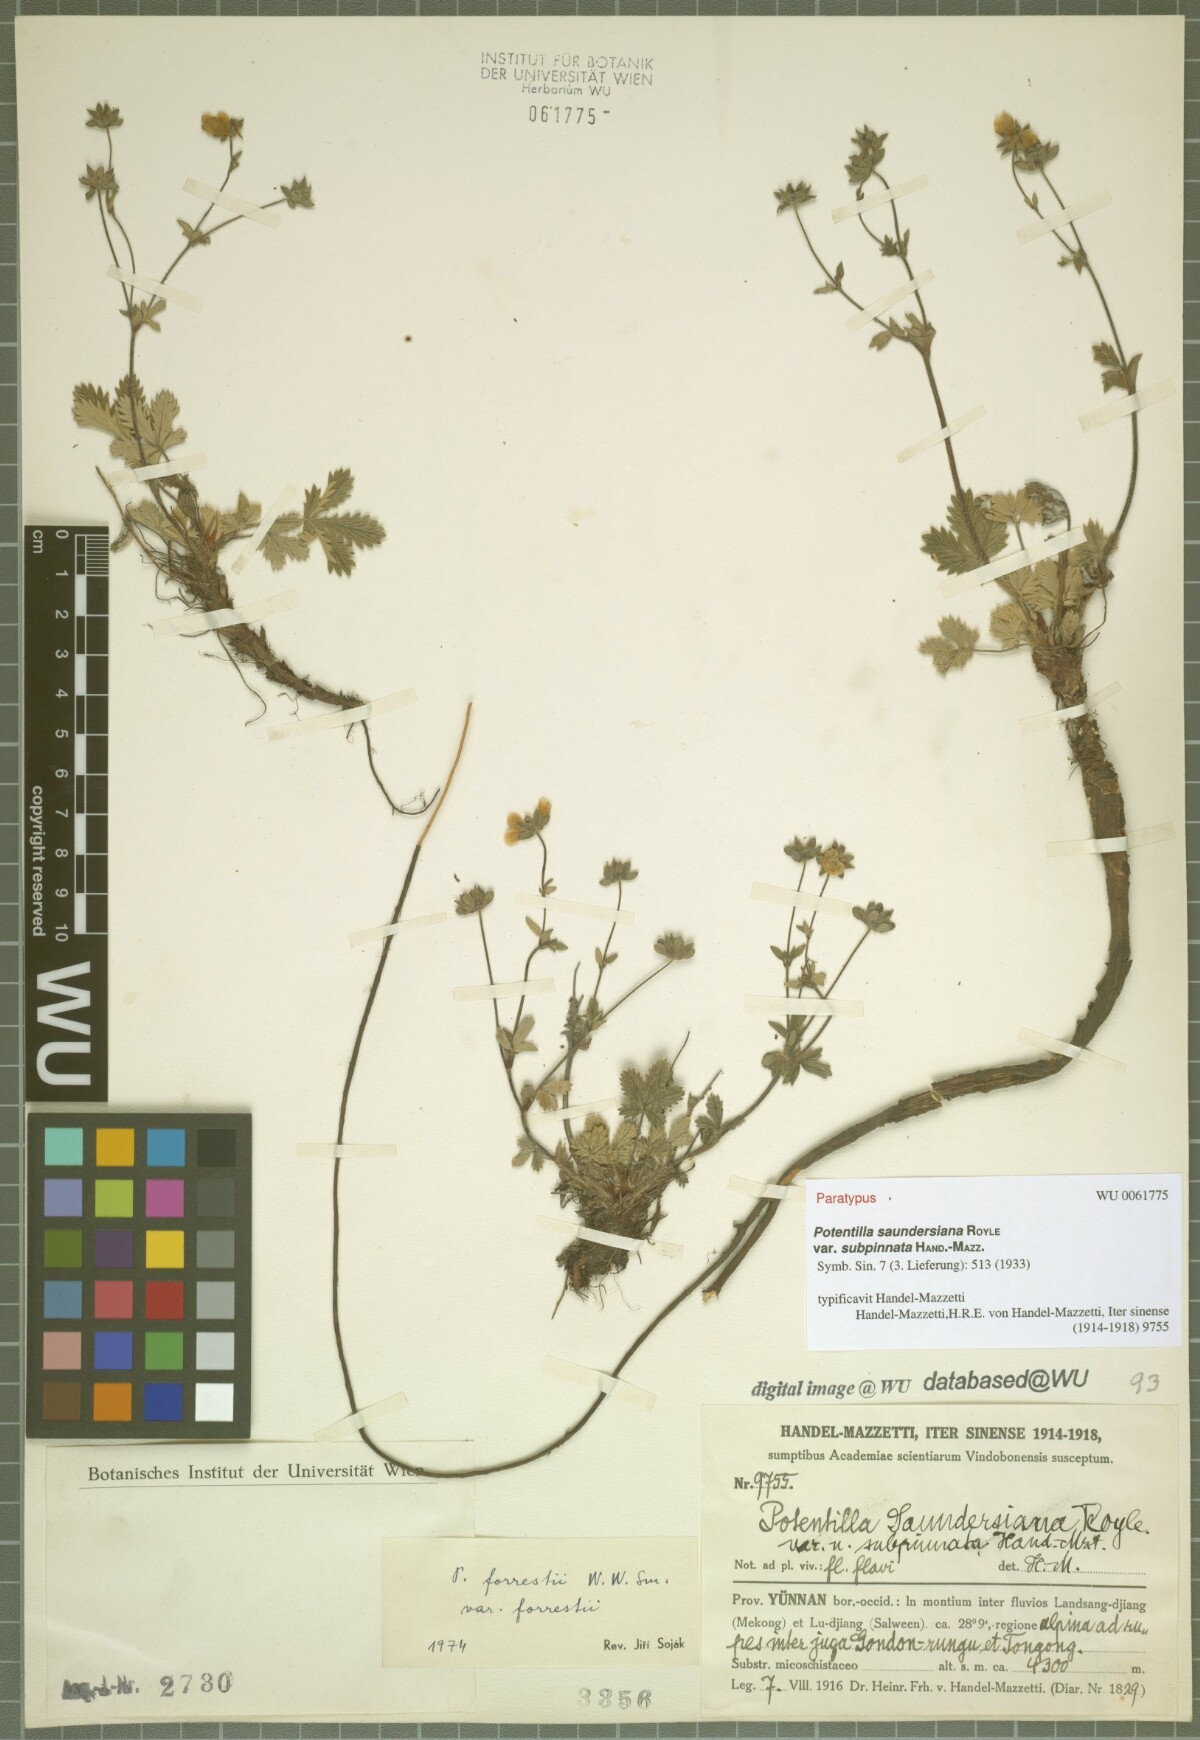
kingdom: Plantae
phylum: Tracheophyta
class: Magnoliopsida
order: Rosales
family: Rosaceae
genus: Potentilla
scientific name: Potentilla saundersiana
